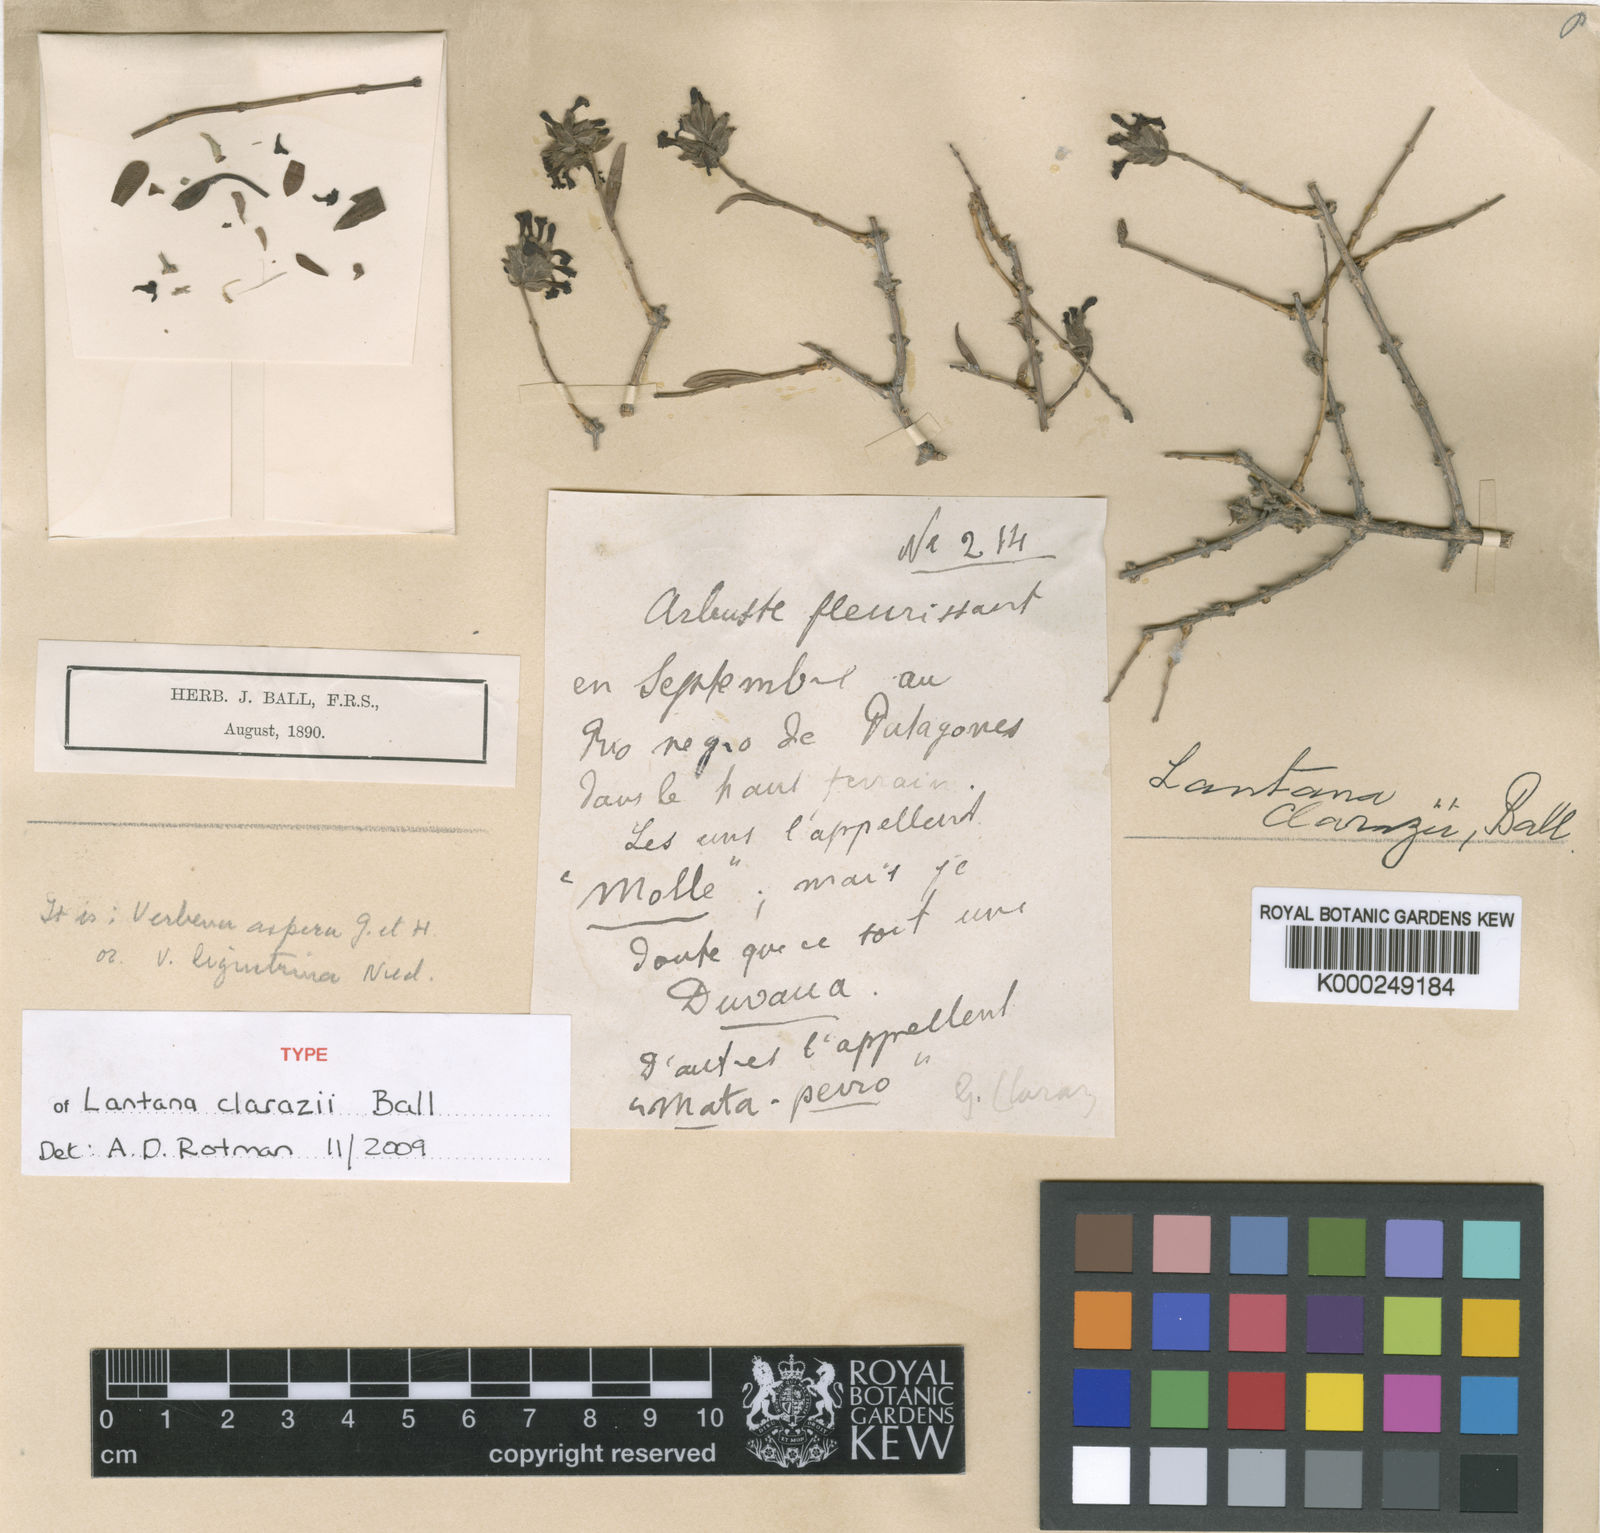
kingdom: Plantae
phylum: Tracheophyta
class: Magnoliopsida
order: Lamiales
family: Verbenaceae
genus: Junellia
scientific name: Junellia spathulata
